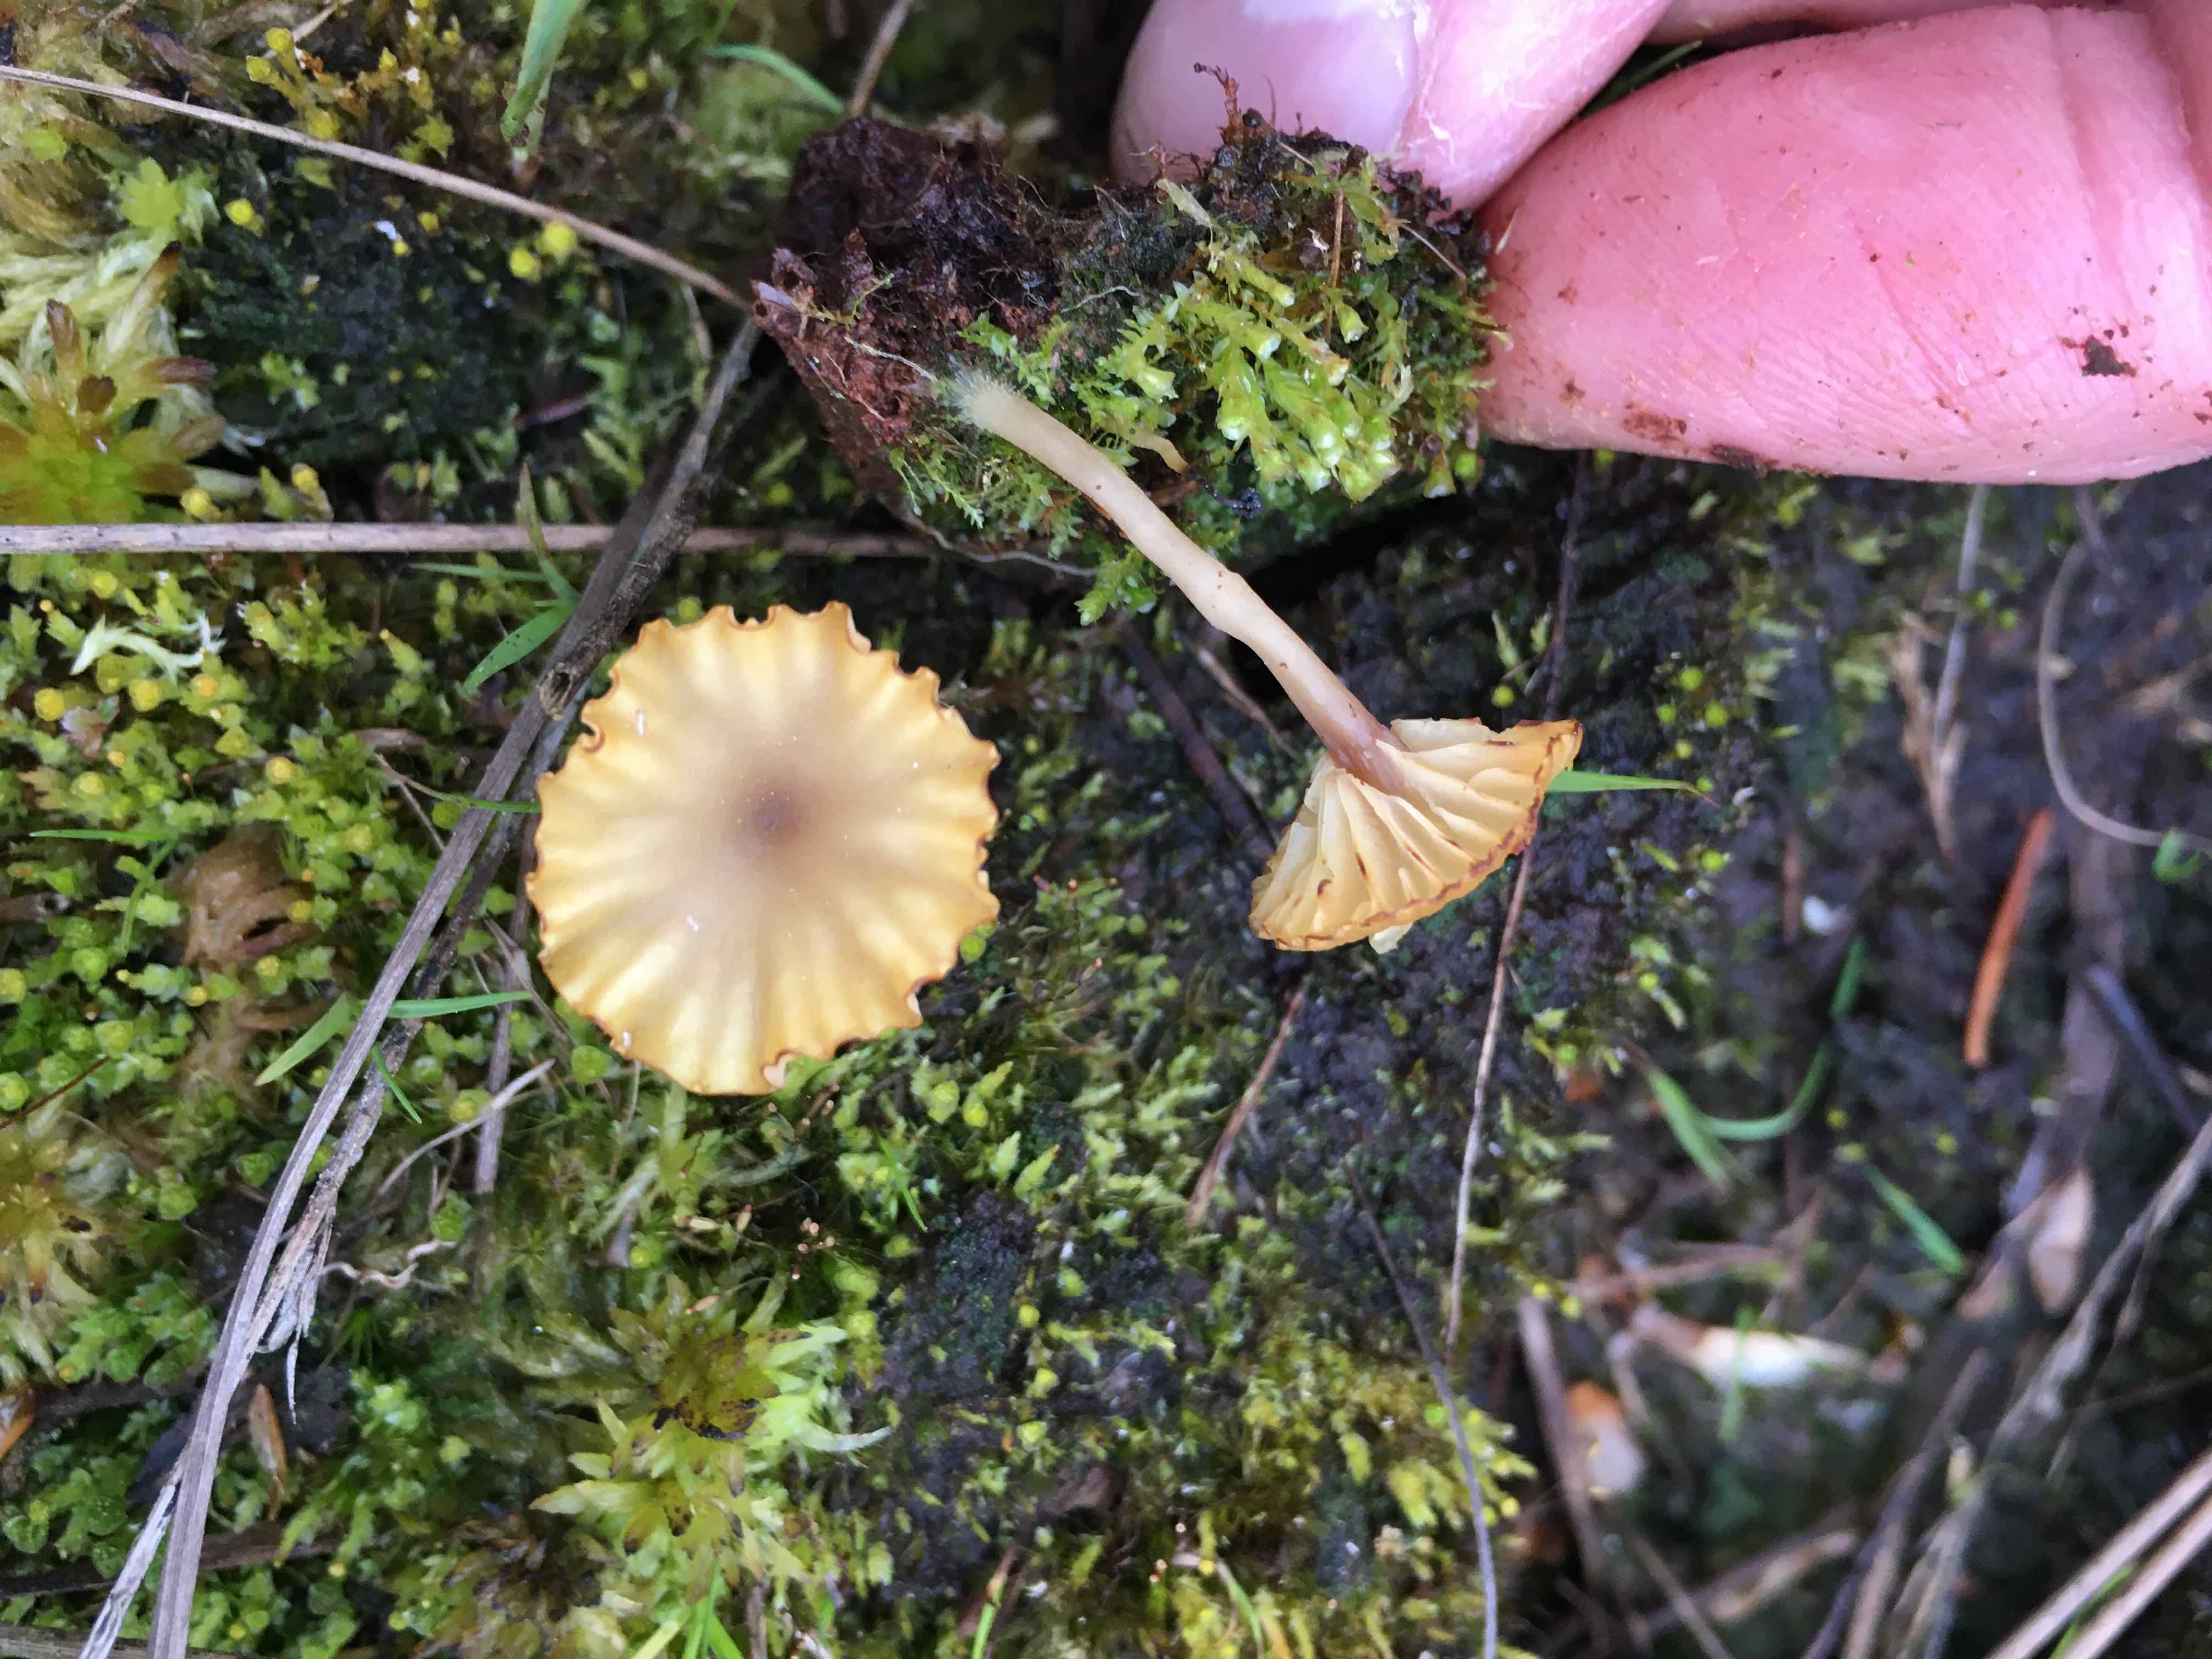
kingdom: Fungi
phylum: Basidiomycota
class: Agaricomycetes
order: Agaricales
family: Hygrophoraceae
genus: Lichenomphalia
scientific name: Lichenomphalia umbellifera
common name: tørve-lavhat
